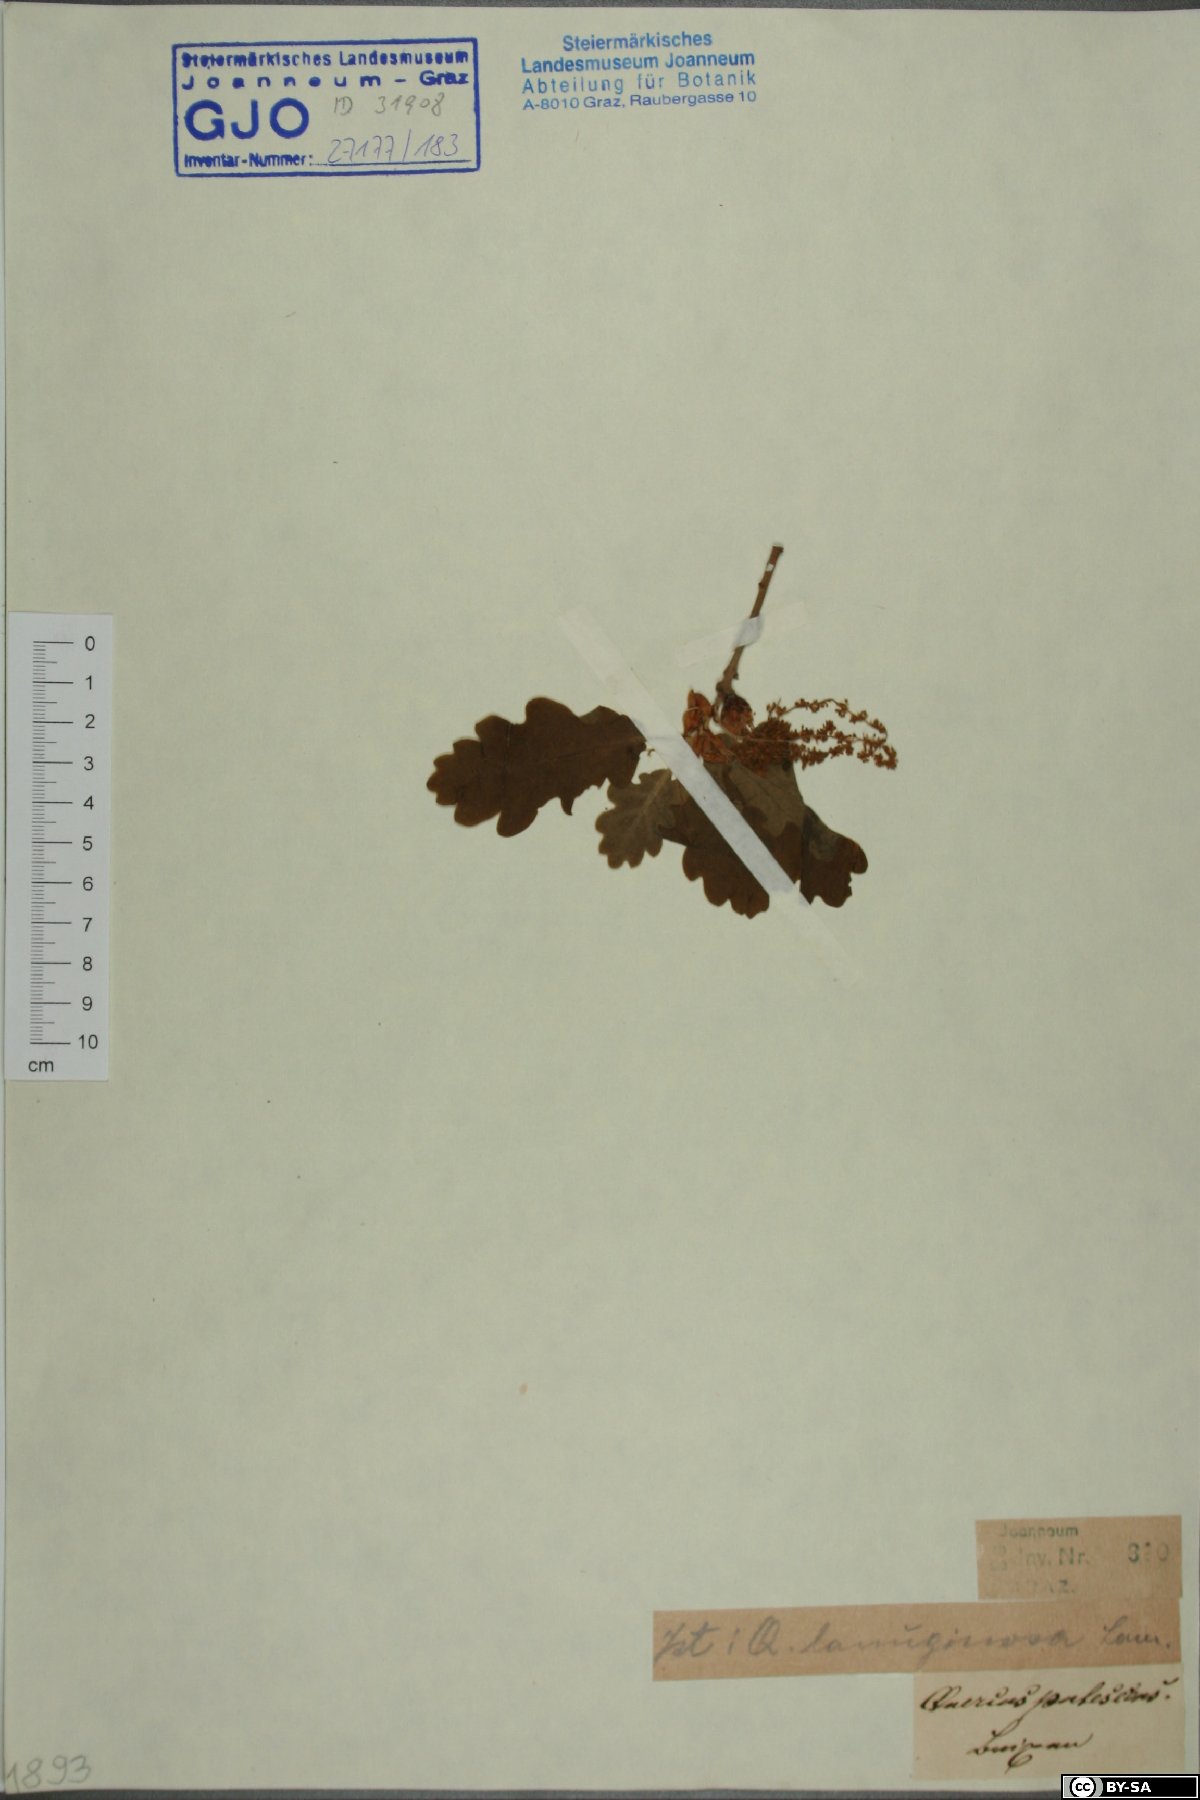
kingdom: Plantae
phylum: Tracheophyta
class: Magnoliopsida
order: Fagales
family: Fagaceae
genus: Quercus
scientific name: Quercus pubescens
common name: Downy oak
